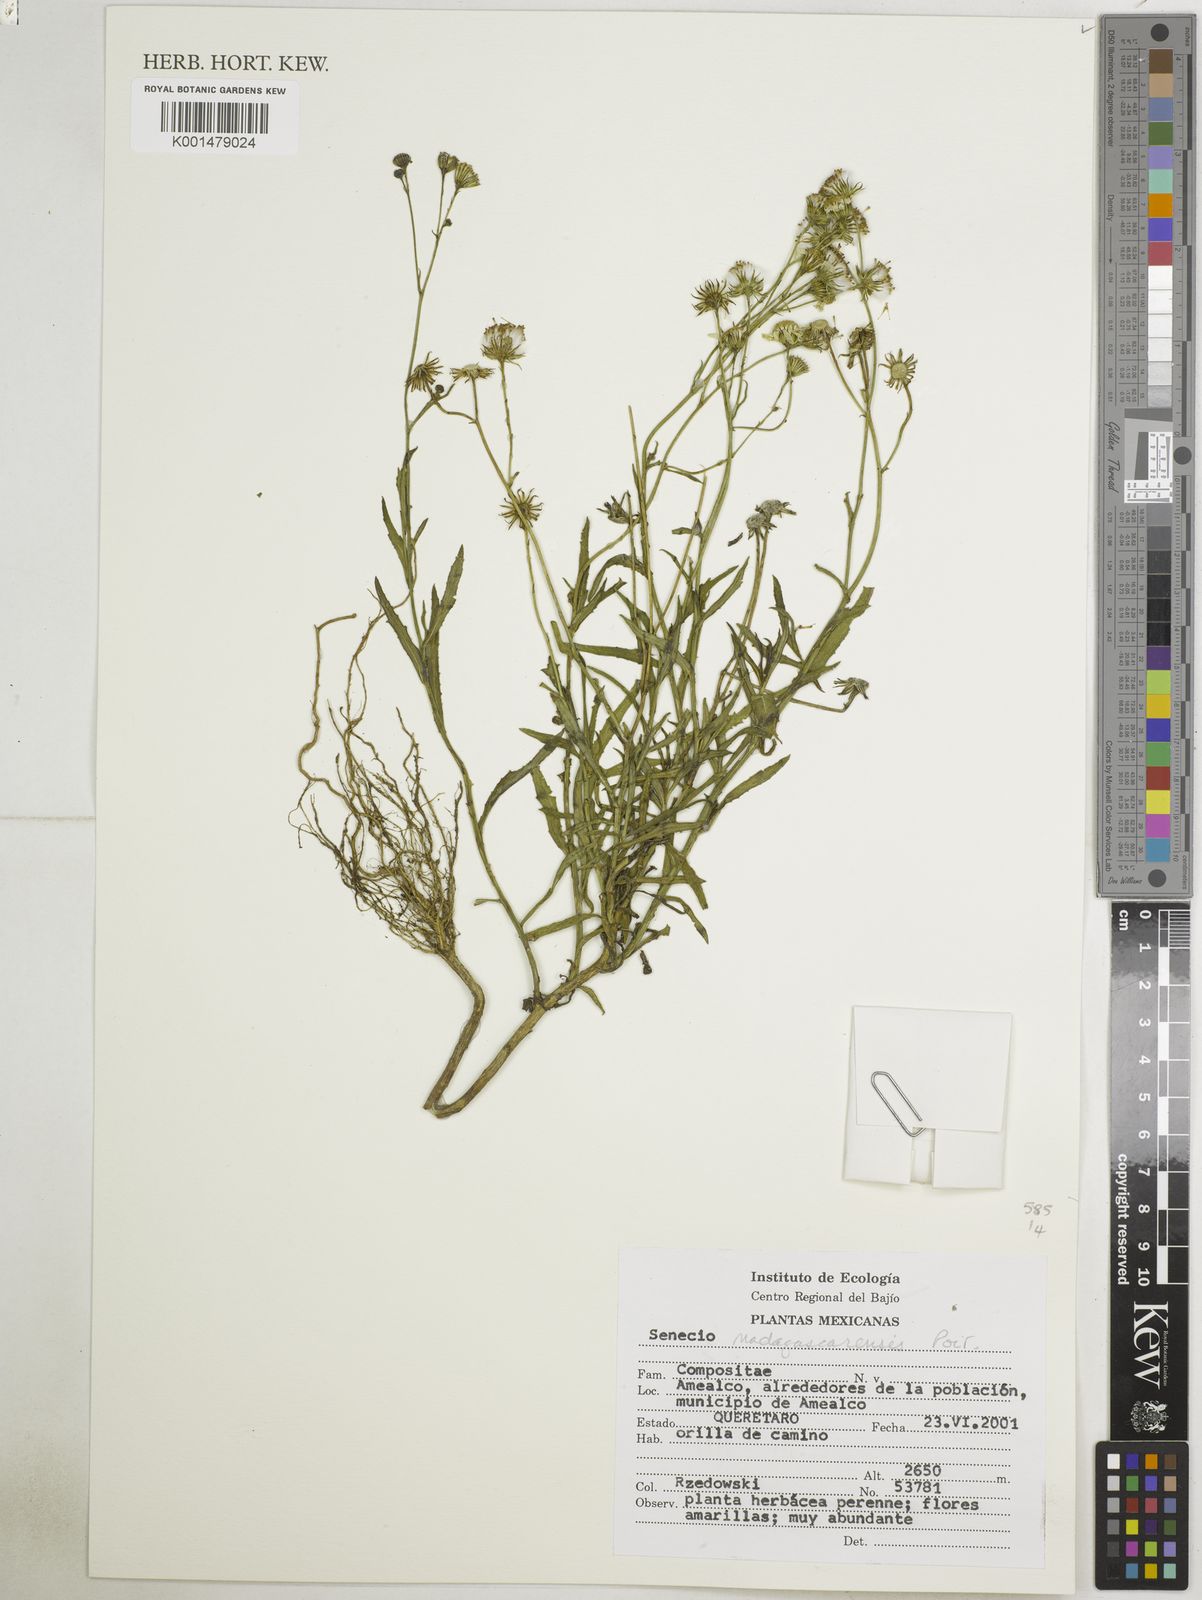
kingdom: Plantae
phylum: Tracheophyta
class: Magnoliopsida
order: Asterales
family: Asteraceae
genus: Senecio
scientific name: Senecio madagascariensis
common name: Madagascar ragwort
